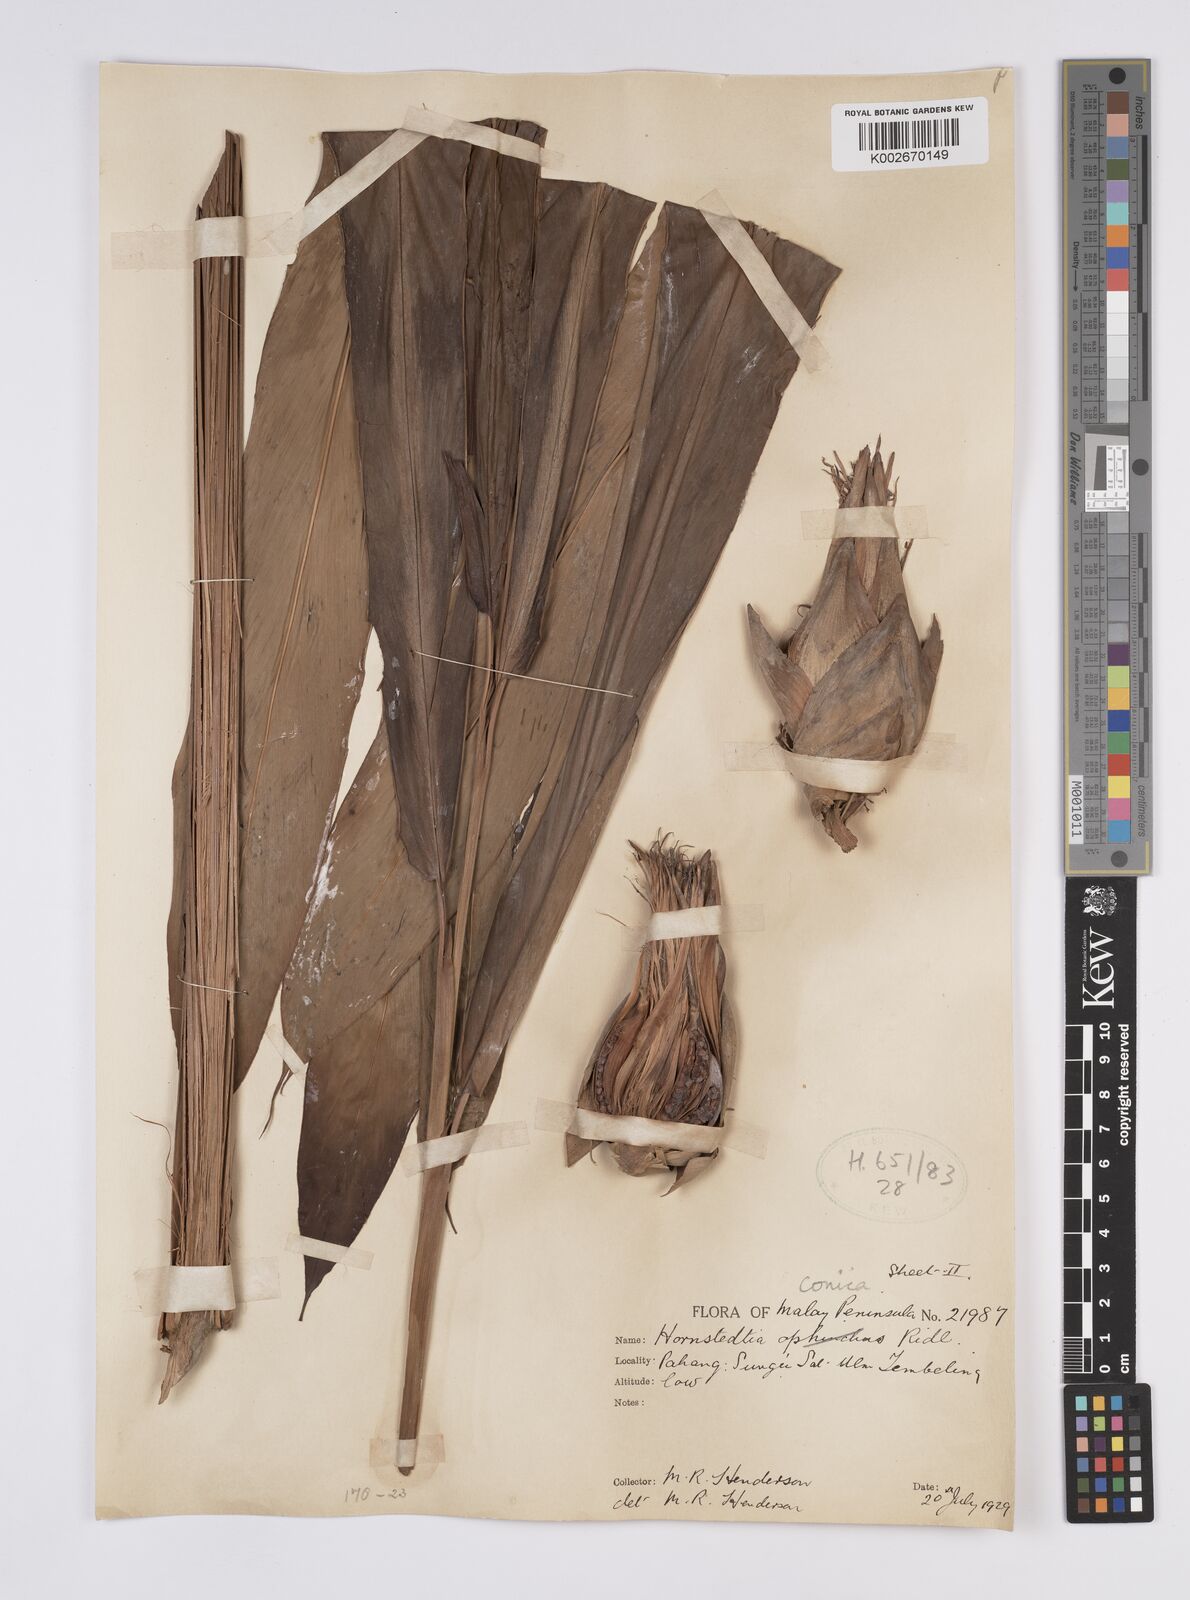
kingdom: Plantae
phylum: Tracheophyta
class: Liliopsida
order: Zingiberales
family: Zingiberaceae
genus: Hornstedtia
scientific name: Hornstedtia conica
